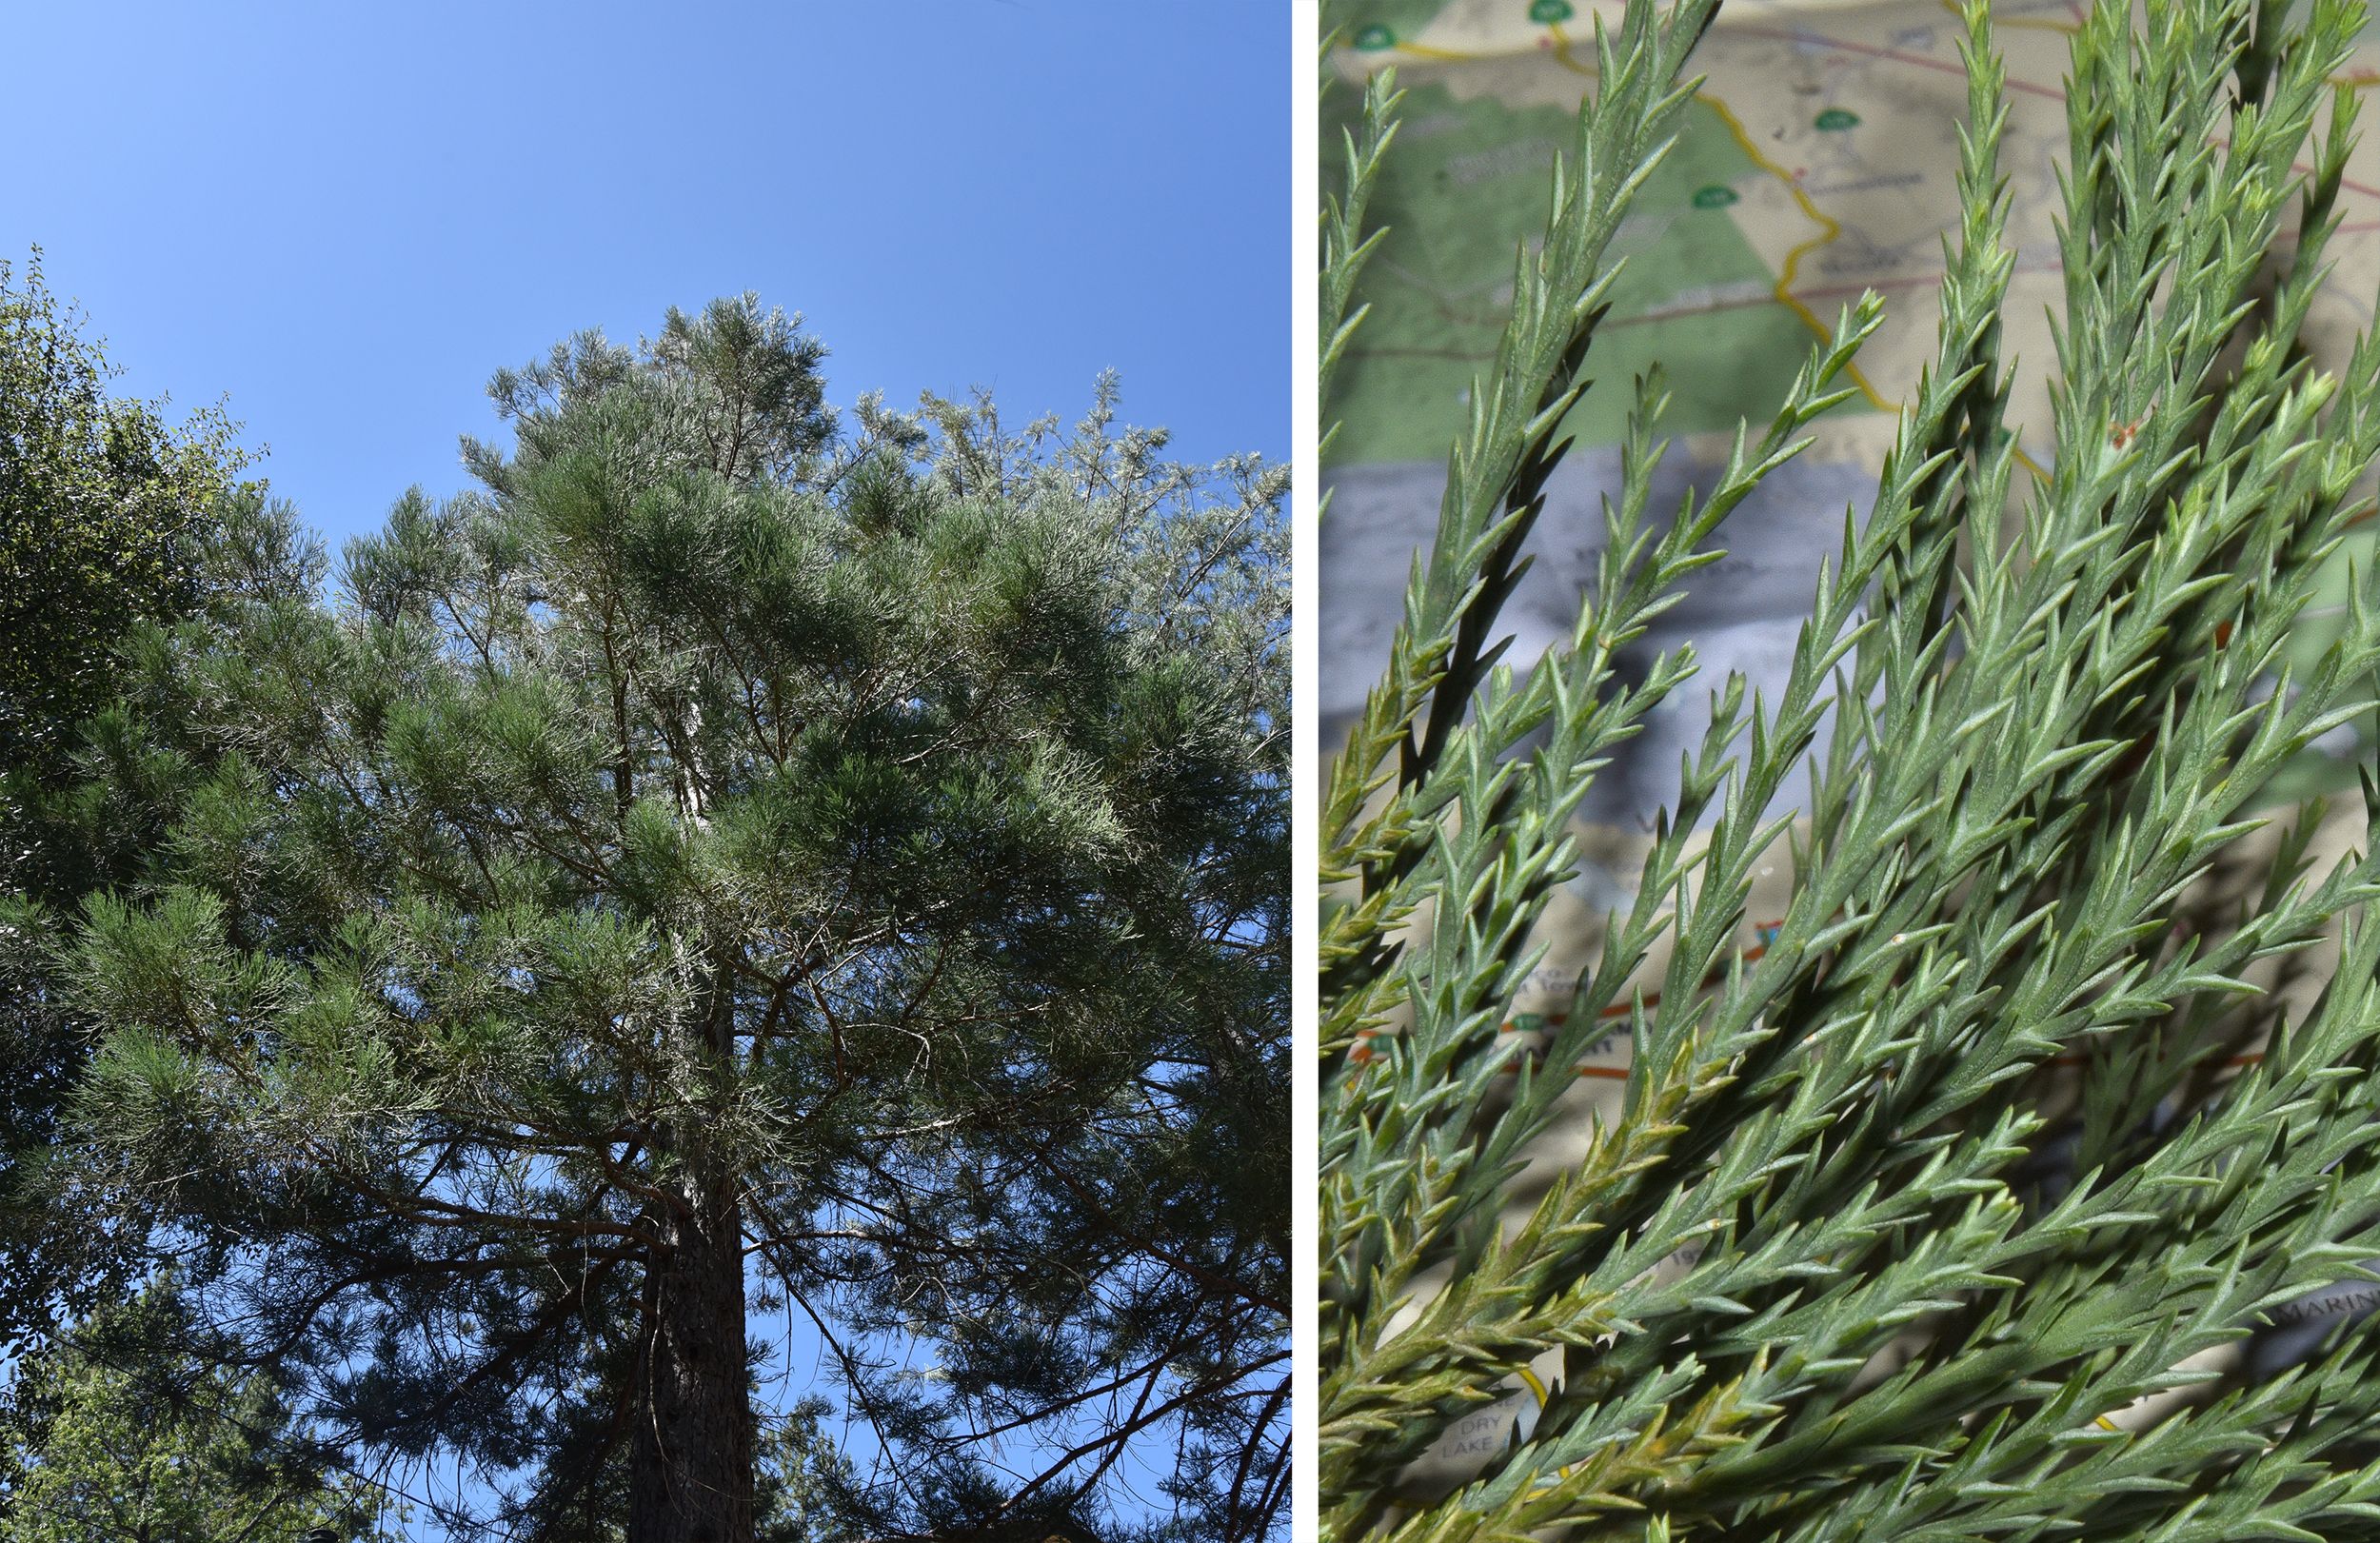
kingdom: Plantae
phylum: Tracheophyta
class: Pinopsida
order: Pinales
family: Cupressaceae
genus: Sequoiadendron
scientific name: Sequoiadendron giganteum
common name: Giant Sequoia
